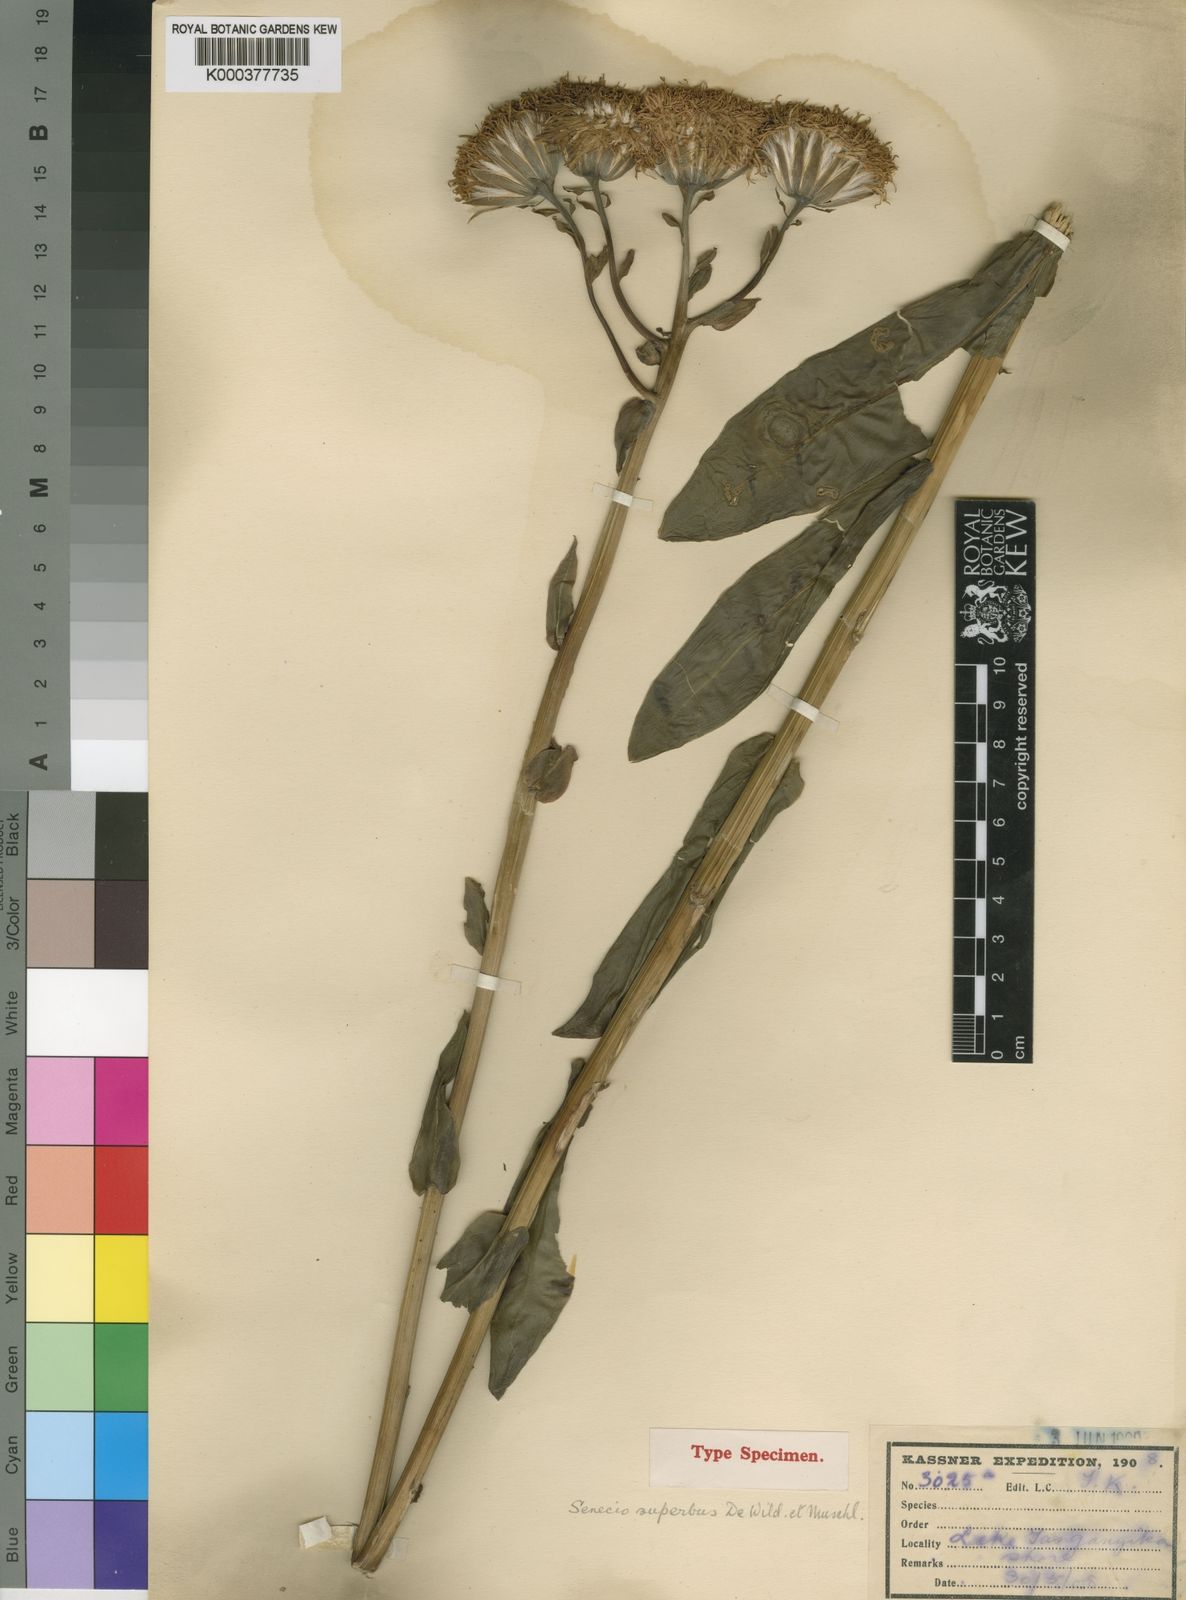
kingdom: Plantae
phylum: Tracheophyta
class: Magnoliopsida
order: Asterales
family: Asteraceae
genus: Kleinia
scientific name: Kleinia abyssinica
